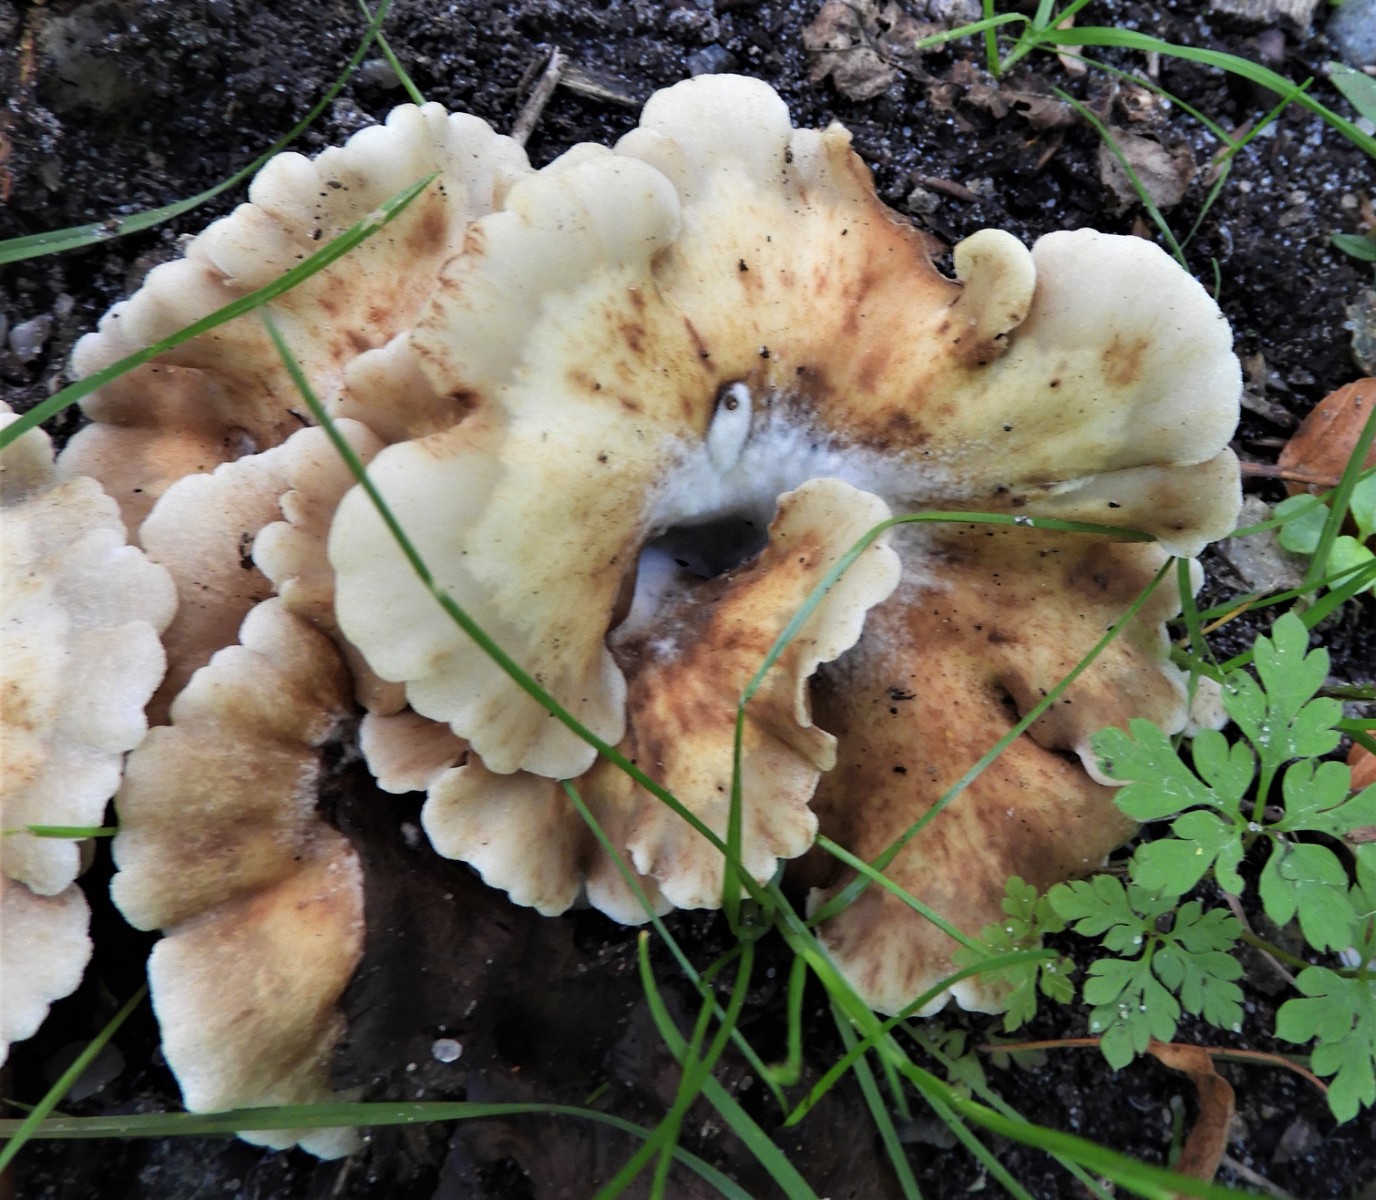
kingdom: Fungi
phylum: Basidiomycota
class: Agaricomycetes
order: Agaricales
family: Crepidotaceae
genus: Crepidotus
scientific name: Crepidotus
